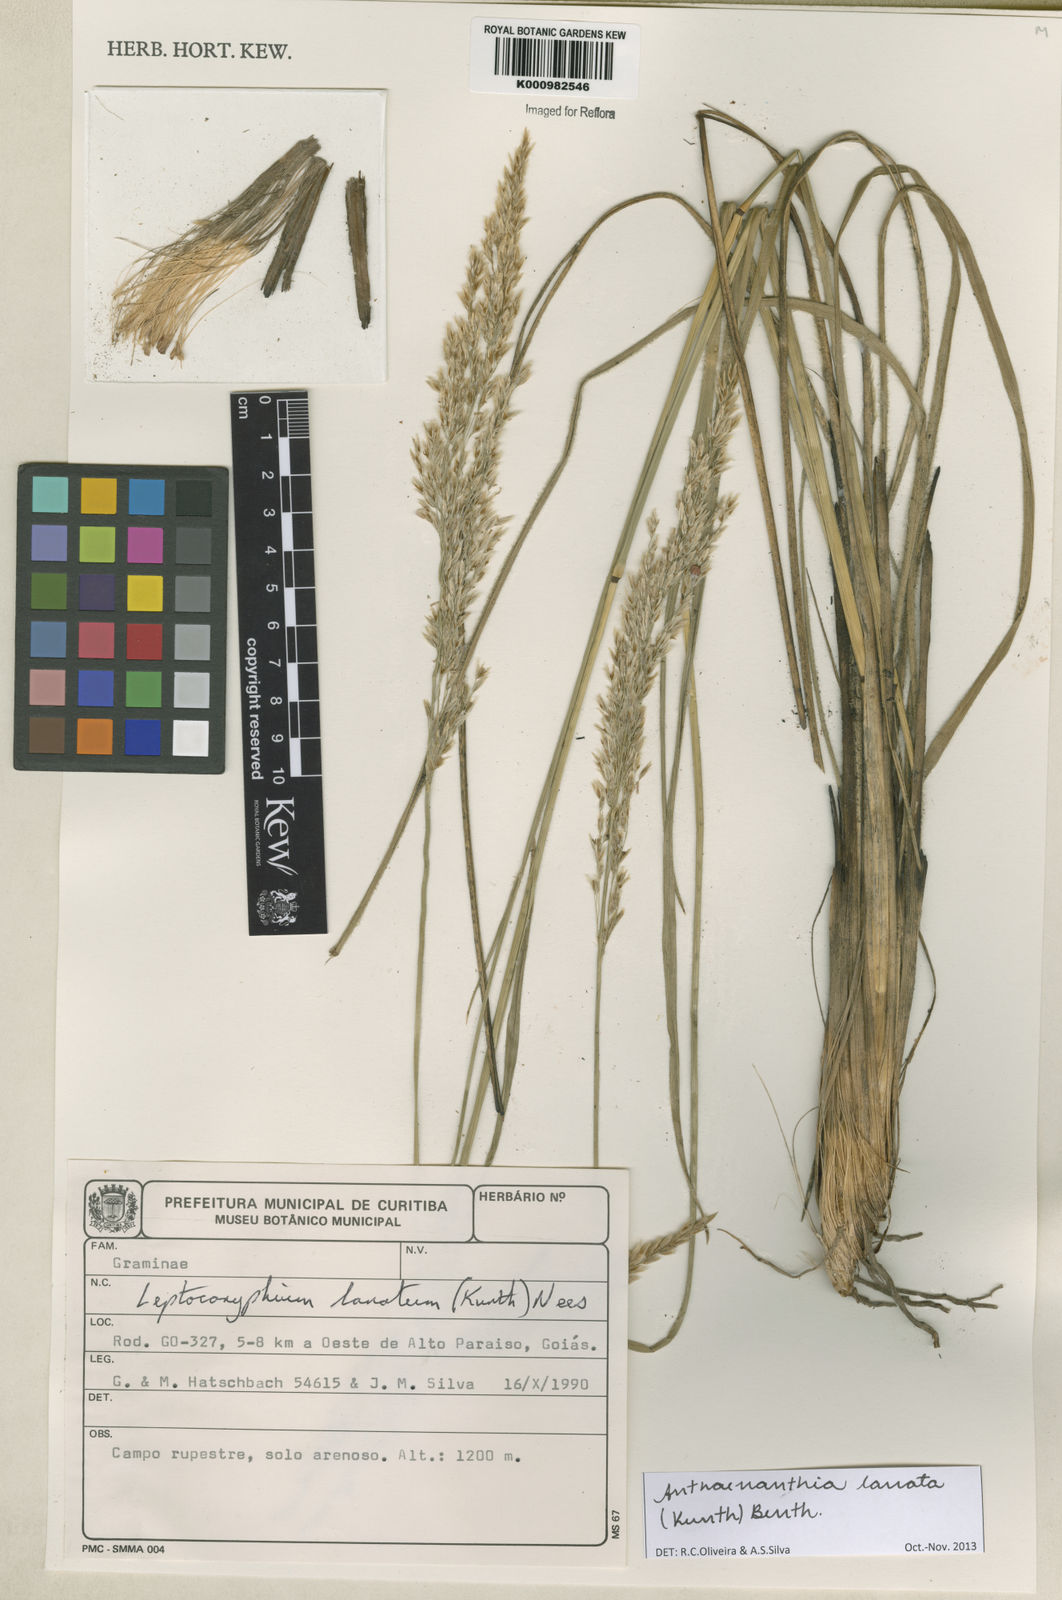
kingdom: Plantae
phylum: Tracheophyta
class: Liliopsida
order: Poales
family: Poaceae
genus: Anthenantia
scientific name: Anthenantia lanata
